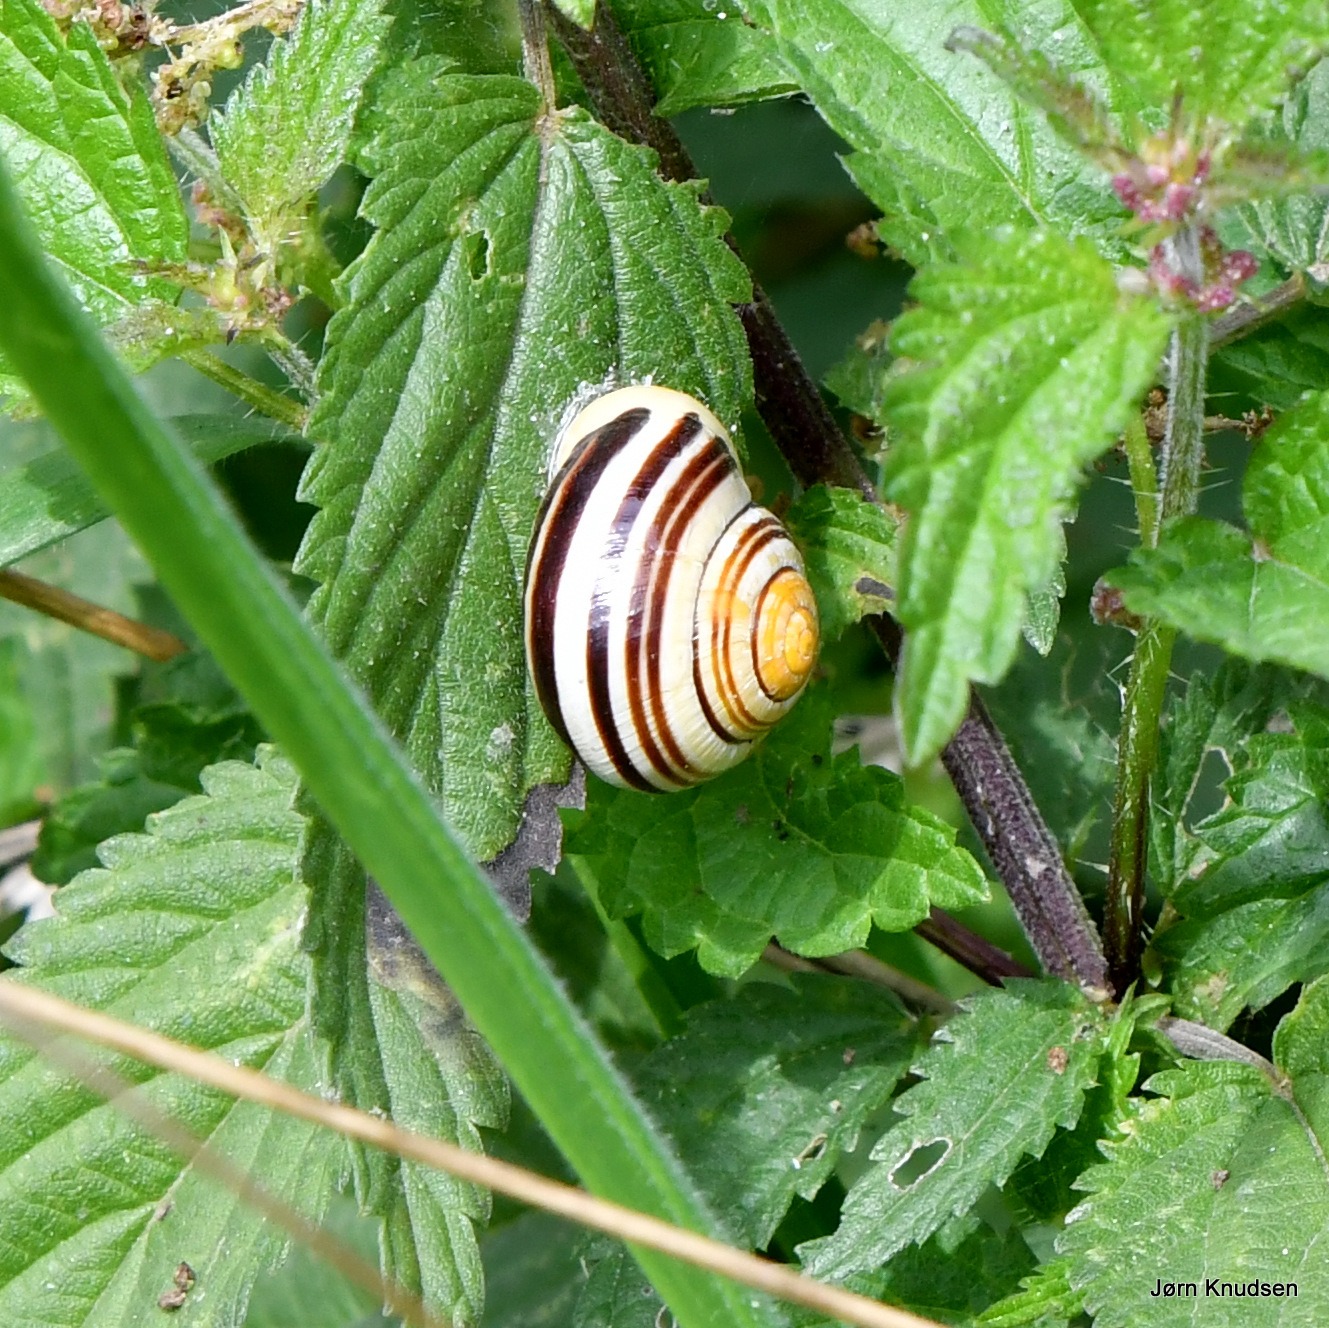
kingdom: Animalia
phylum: Mollusca
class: Gastropoda
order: Stylommatophora
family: Helicidae
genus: Cepaea
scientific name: Cepaea hortensis
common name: Havesnegl
